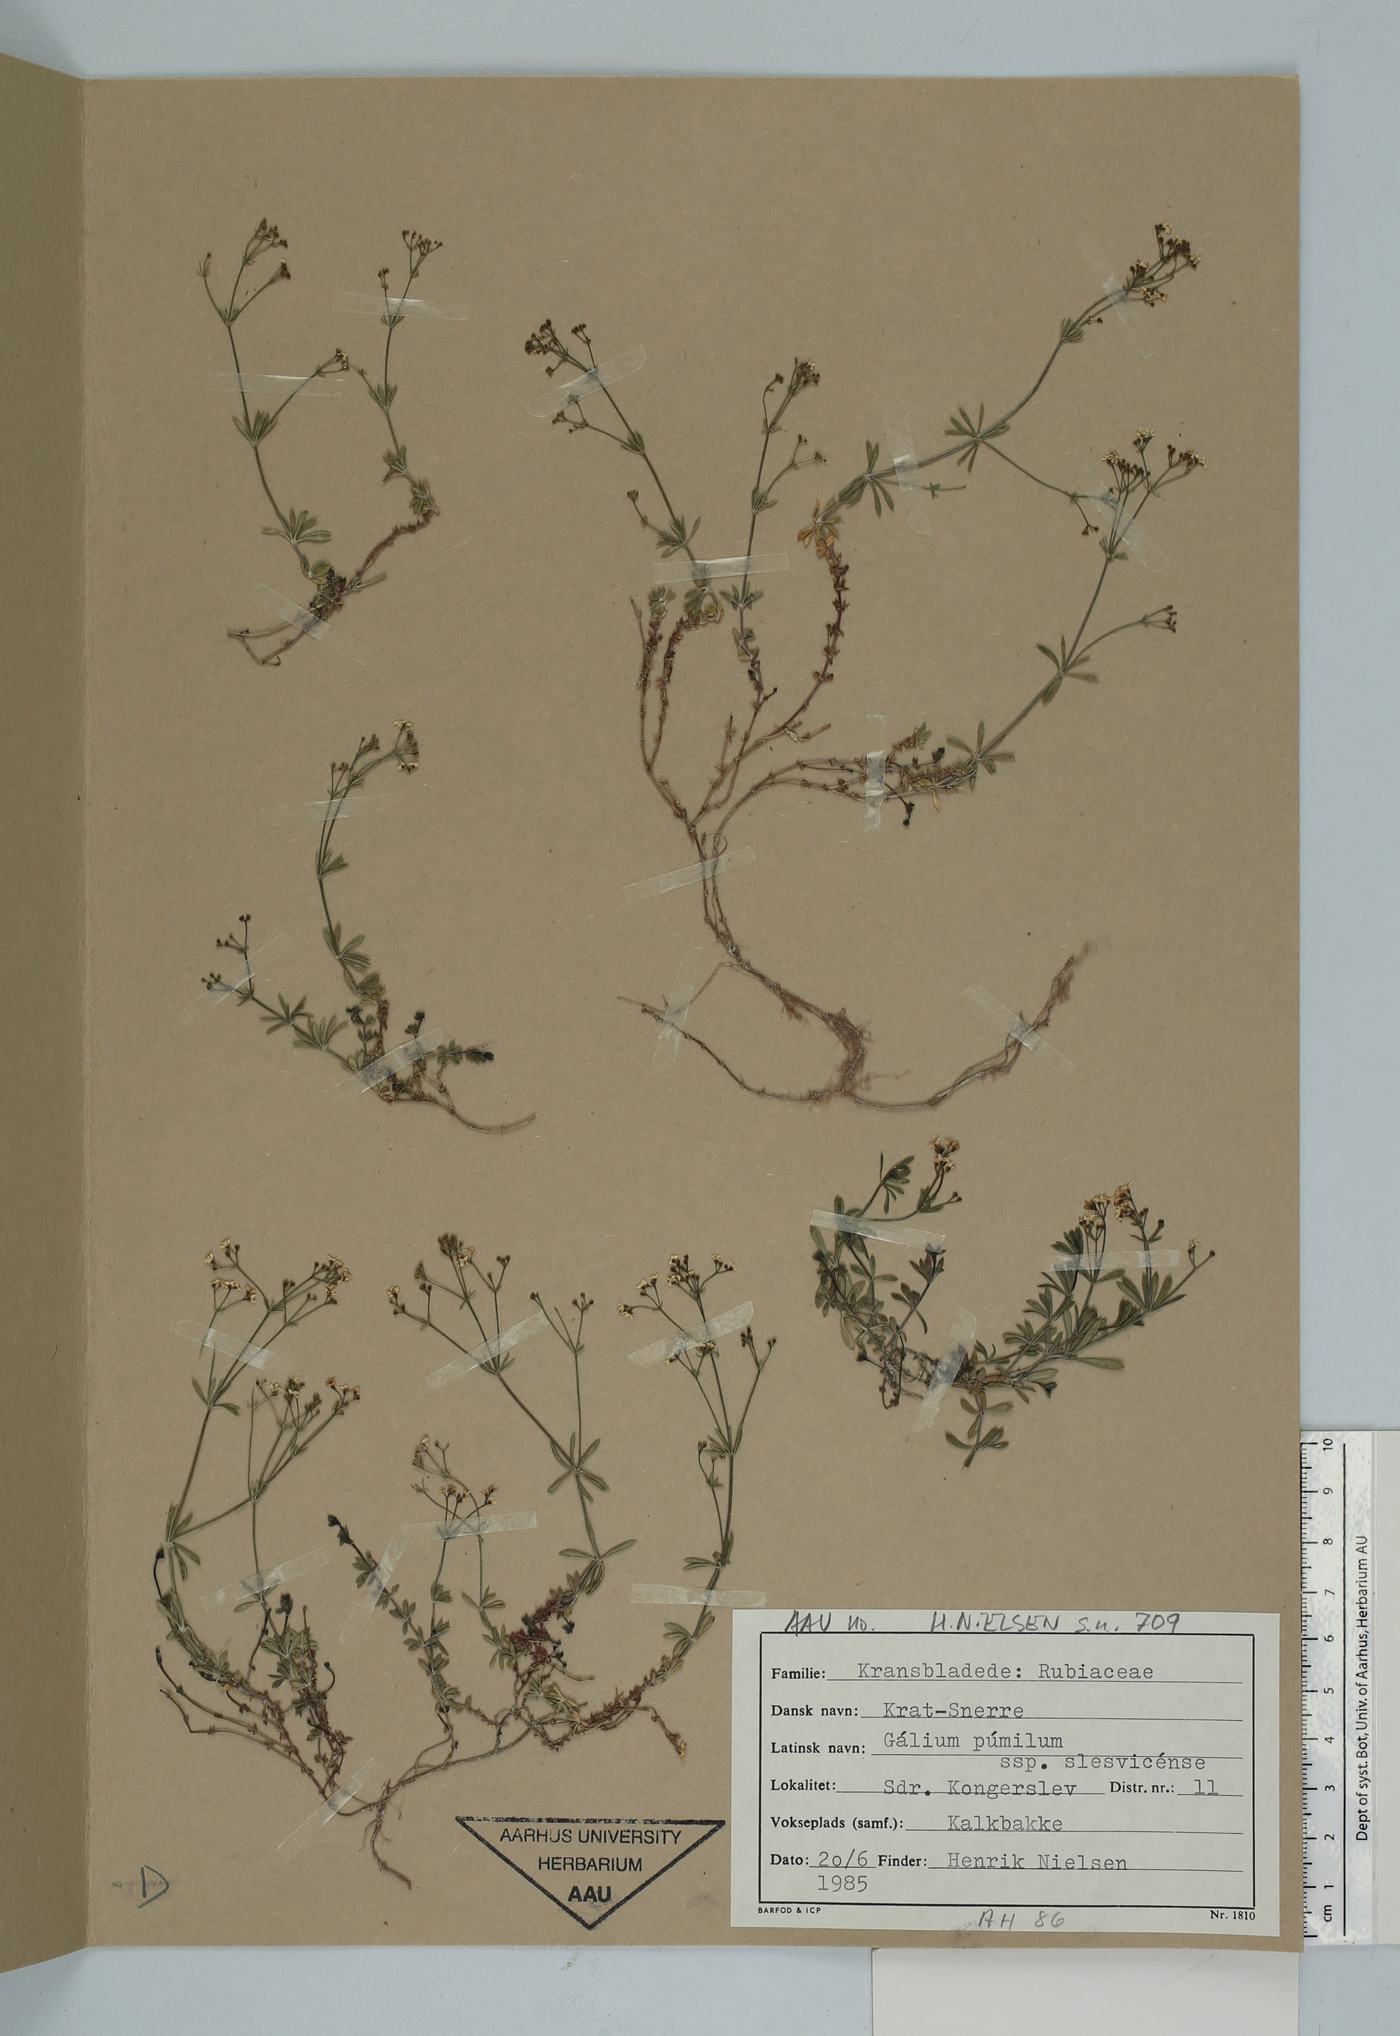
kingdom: Plantae
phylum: Tracheophyta
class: Magnoliopsida
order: Gentianales
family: Rubiaceae
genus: Galium
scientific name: Galium valdepilosum
